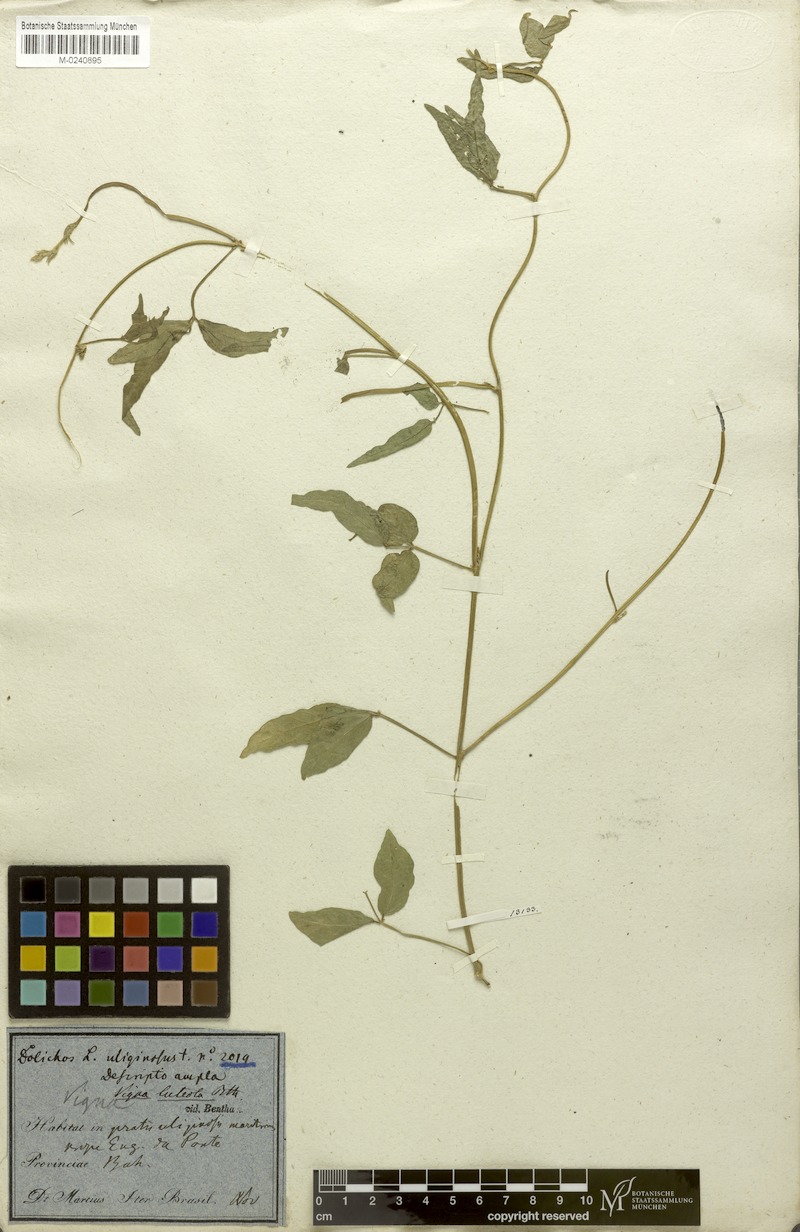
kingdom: Plantae
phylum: Tracheophyta
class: Magnoliopsida
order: Fabales
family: Fabaceae
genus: Vigna
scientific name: Vigna luteola
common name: Hairypod cowpea
